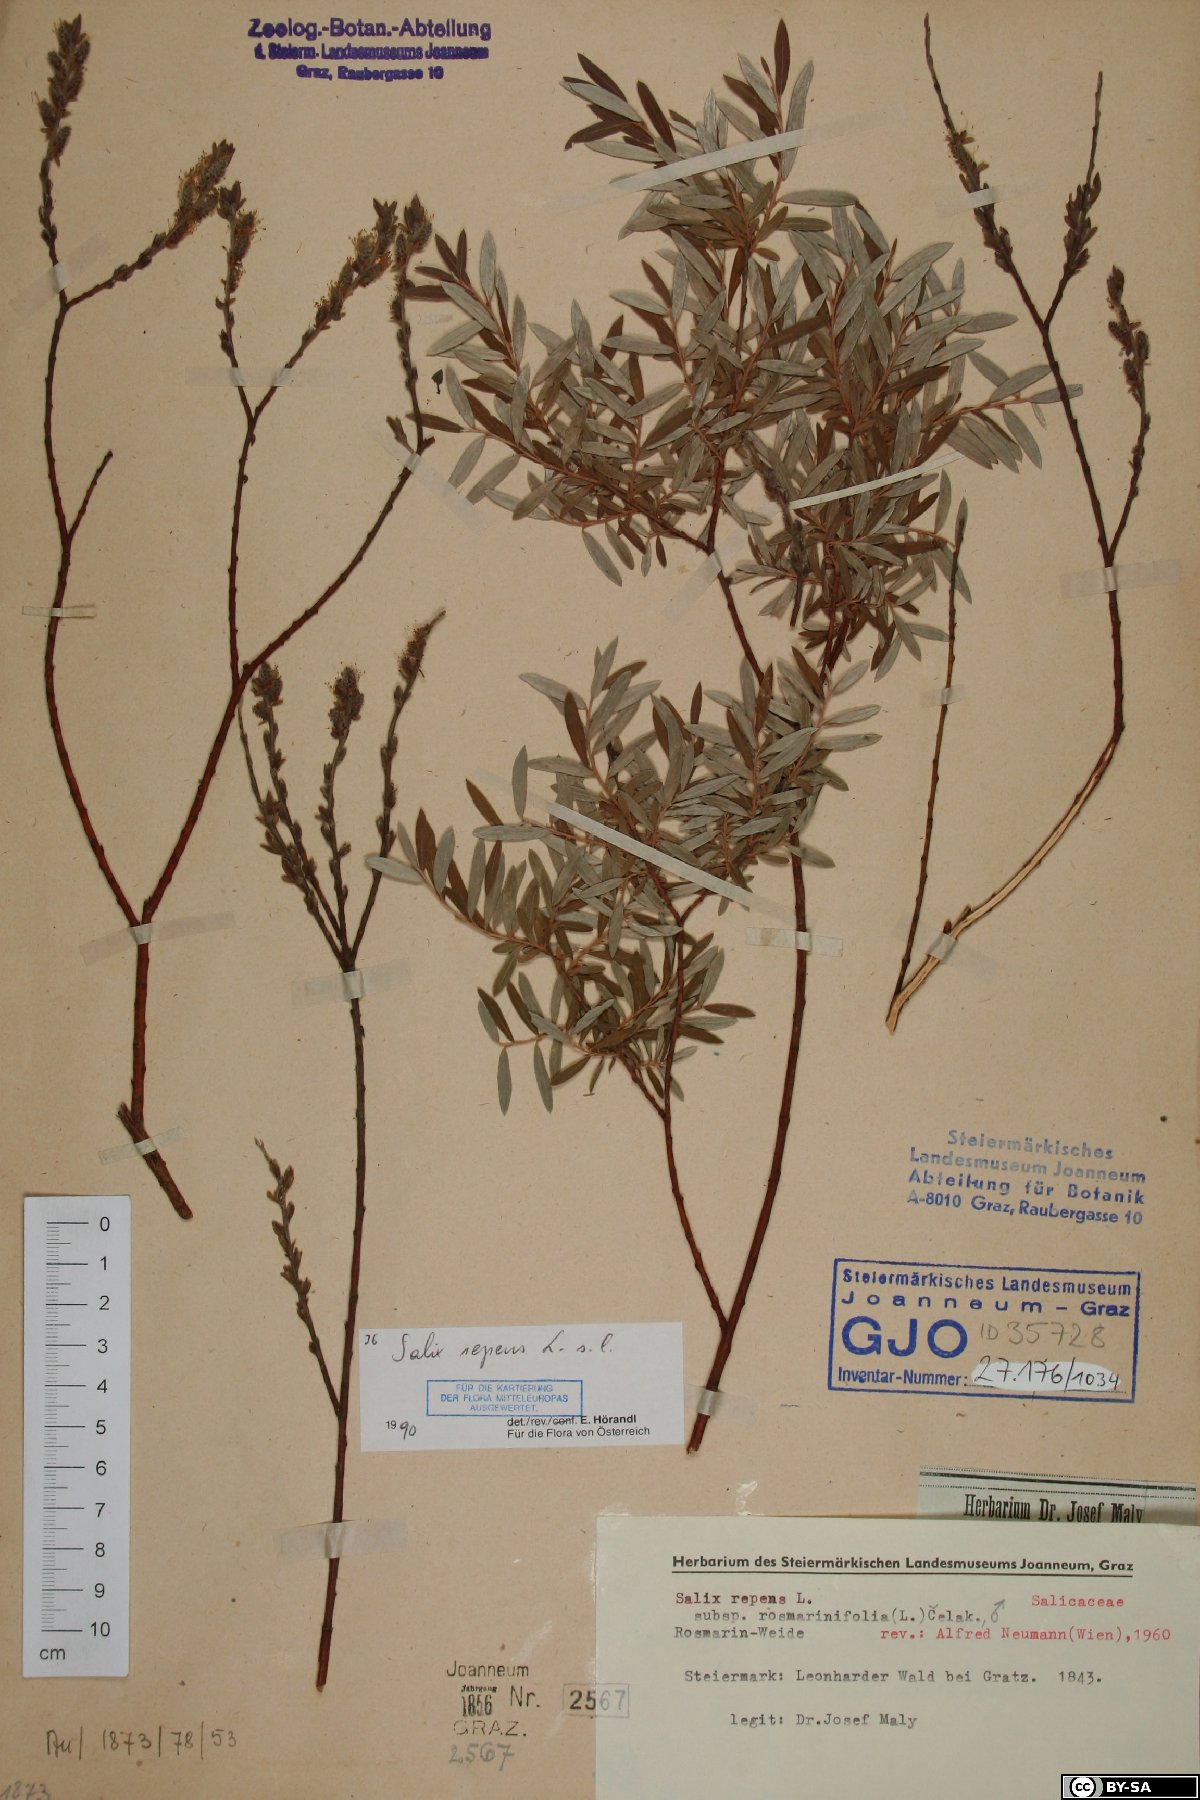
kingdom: Plantae
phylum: Tracheophyta
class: Magnoliopsida
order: Malpighiales
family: Salicaceae
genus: Salix
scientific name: Salix repens
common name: Creeping willow
